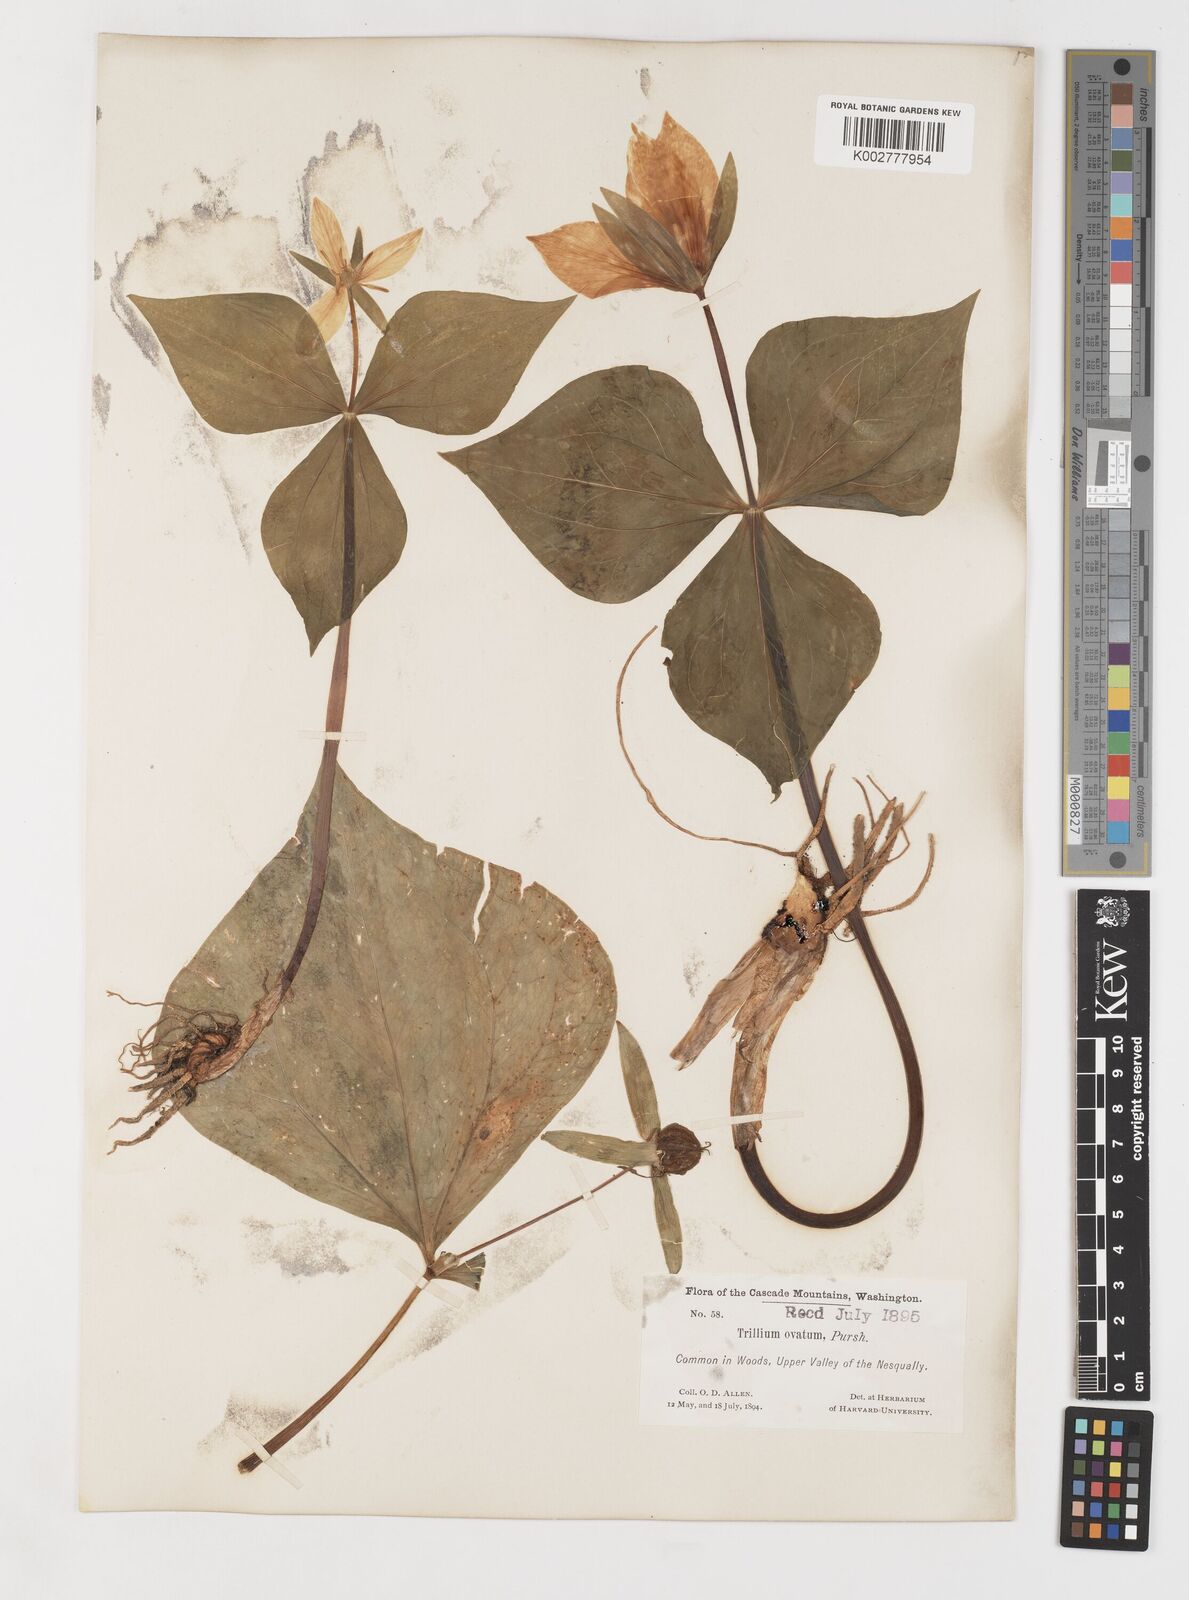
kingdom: Plantae
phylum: Tracheophyta
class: Liliopsida
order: Liliales
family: Melanthiaceae
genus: Trillium
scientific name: Trillium ovatum
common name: Pacific trillium
